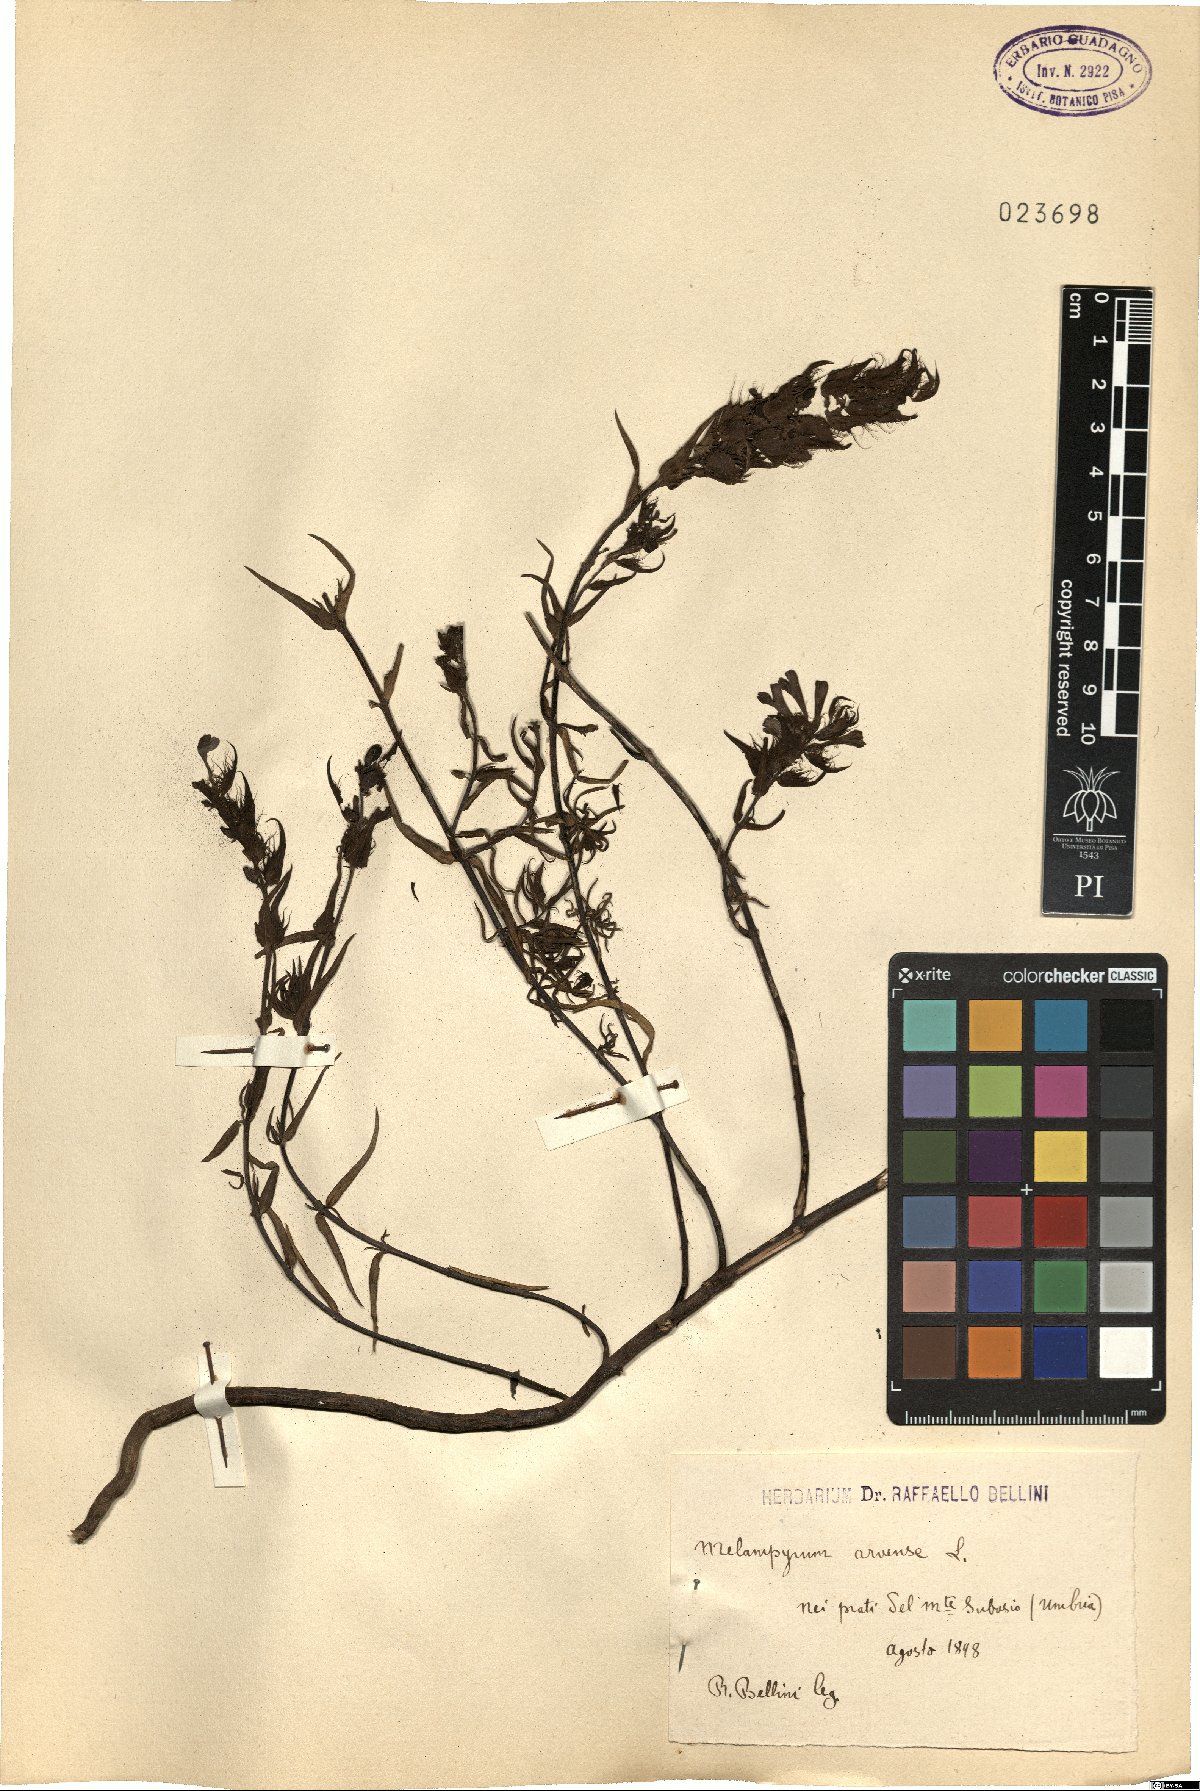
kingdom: Plantae
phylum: Tracheophyta
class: Magnoliopsida
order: Lamiales
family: Orobanchaceae
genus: Melampyrum
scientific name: Melampyrum arvense
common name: Field cow-wheat
